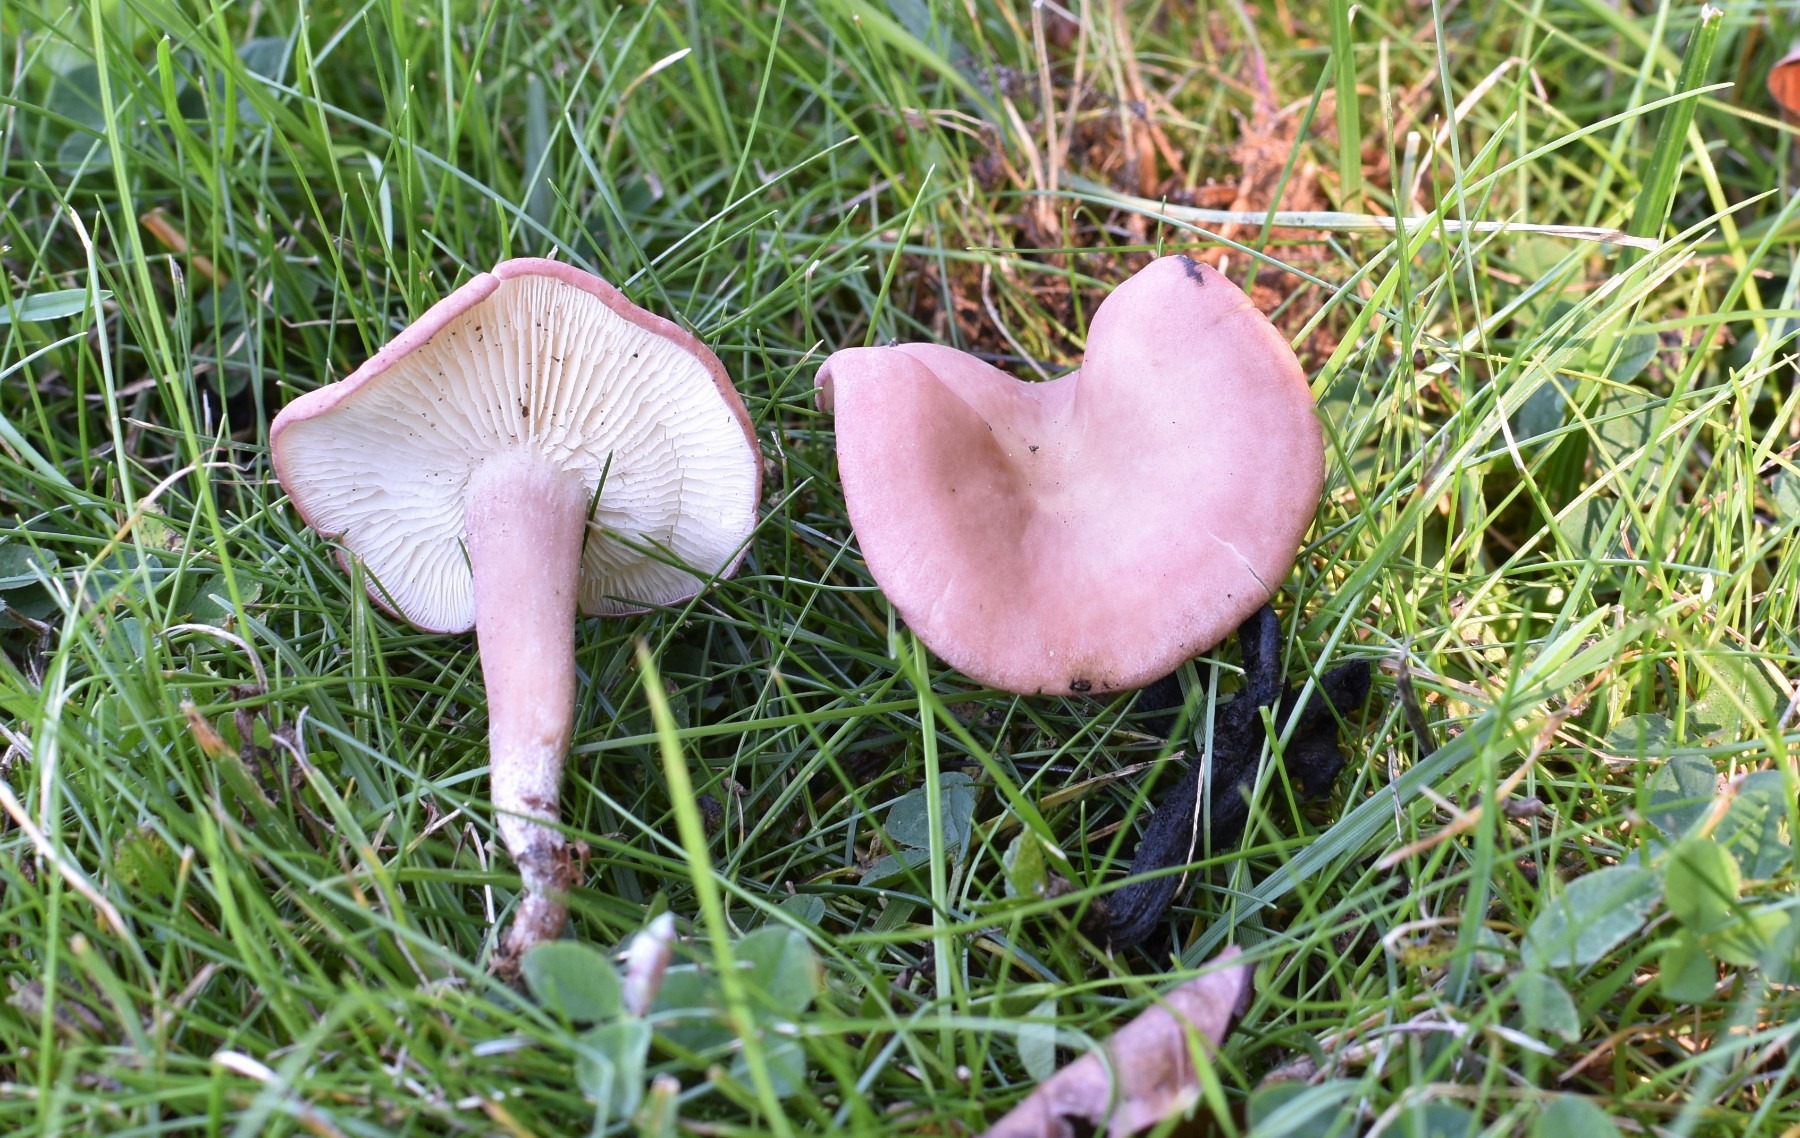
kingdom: Fungi
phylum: Basidiomycota
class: Agaricomycetes
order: Agaricales
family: Lyophyllaceae
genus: Calocybe
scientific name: Calocybe carnea
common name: rosa fagerhat
